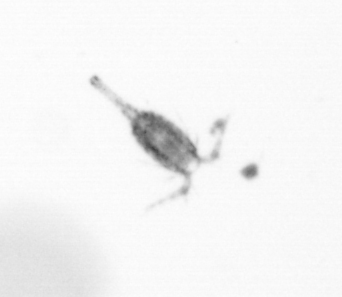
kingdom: Animalia
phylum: Arthropoda
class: Copepoda
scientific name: Copepoda
